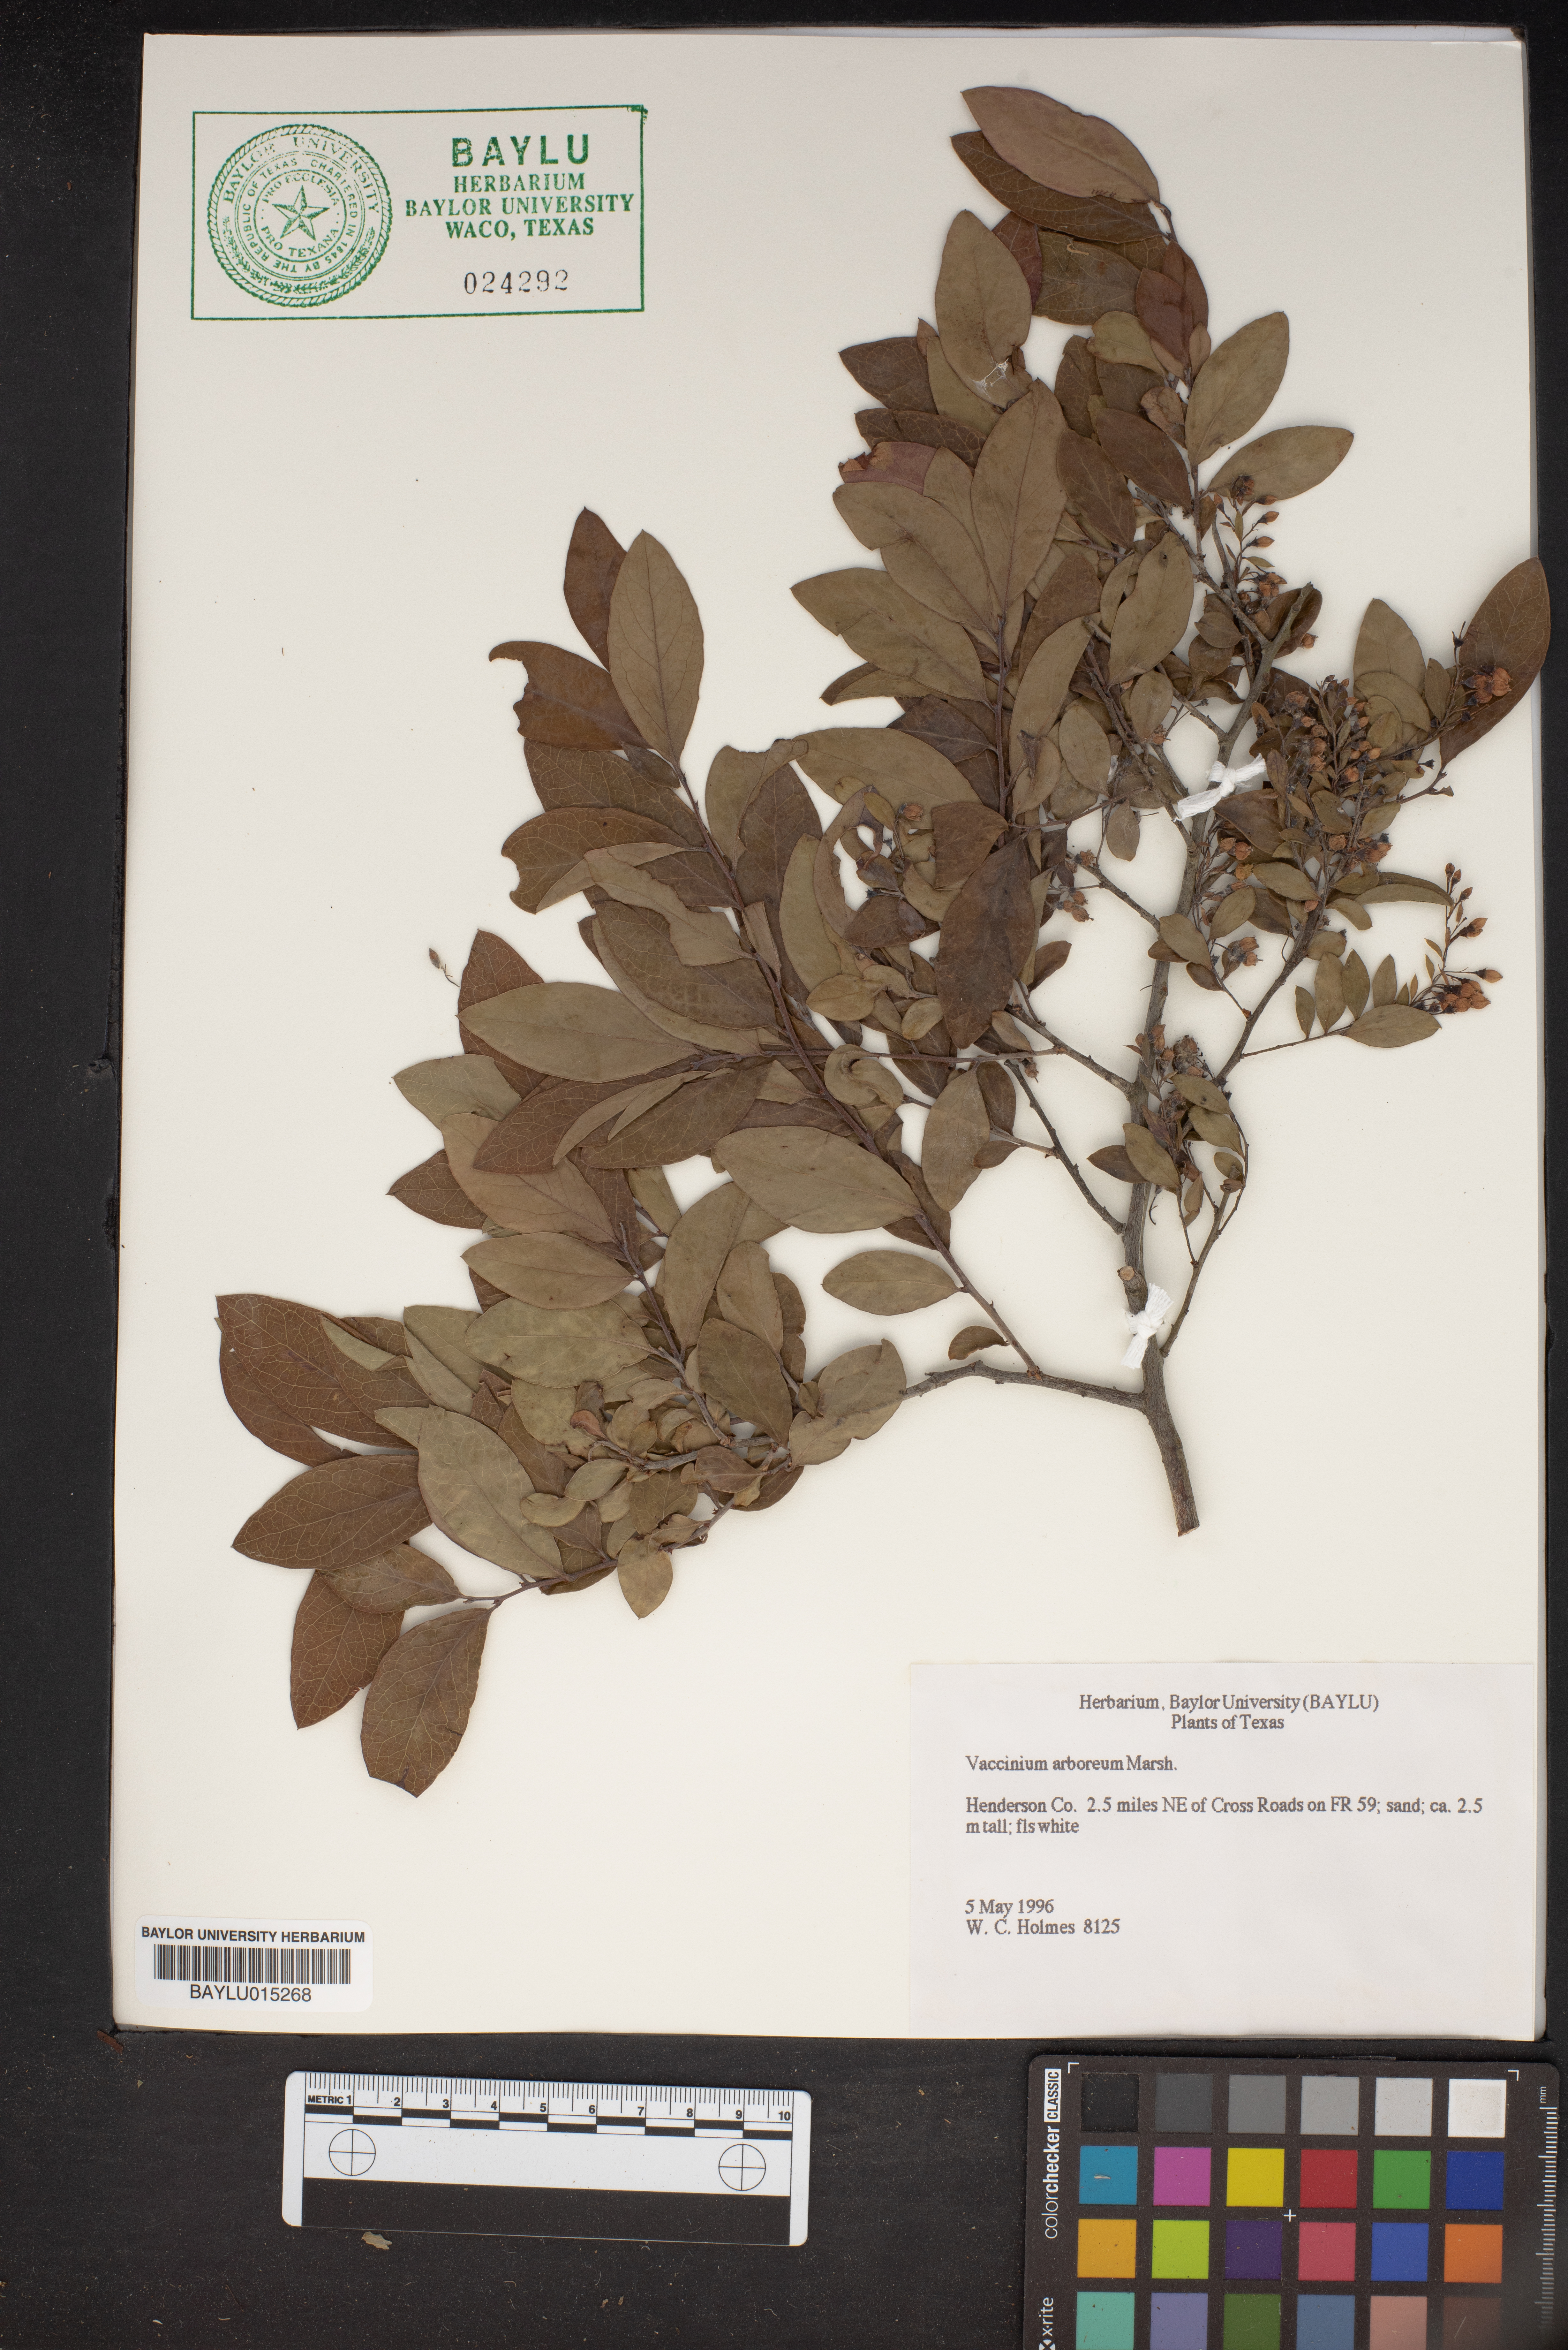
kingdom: Plantae
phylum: Tracheophyta
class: Magnoliopsida
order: Ericales
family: Ericaceae
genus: Vaccinium
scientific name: Vaccinium arboreum
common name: Farkleberry
